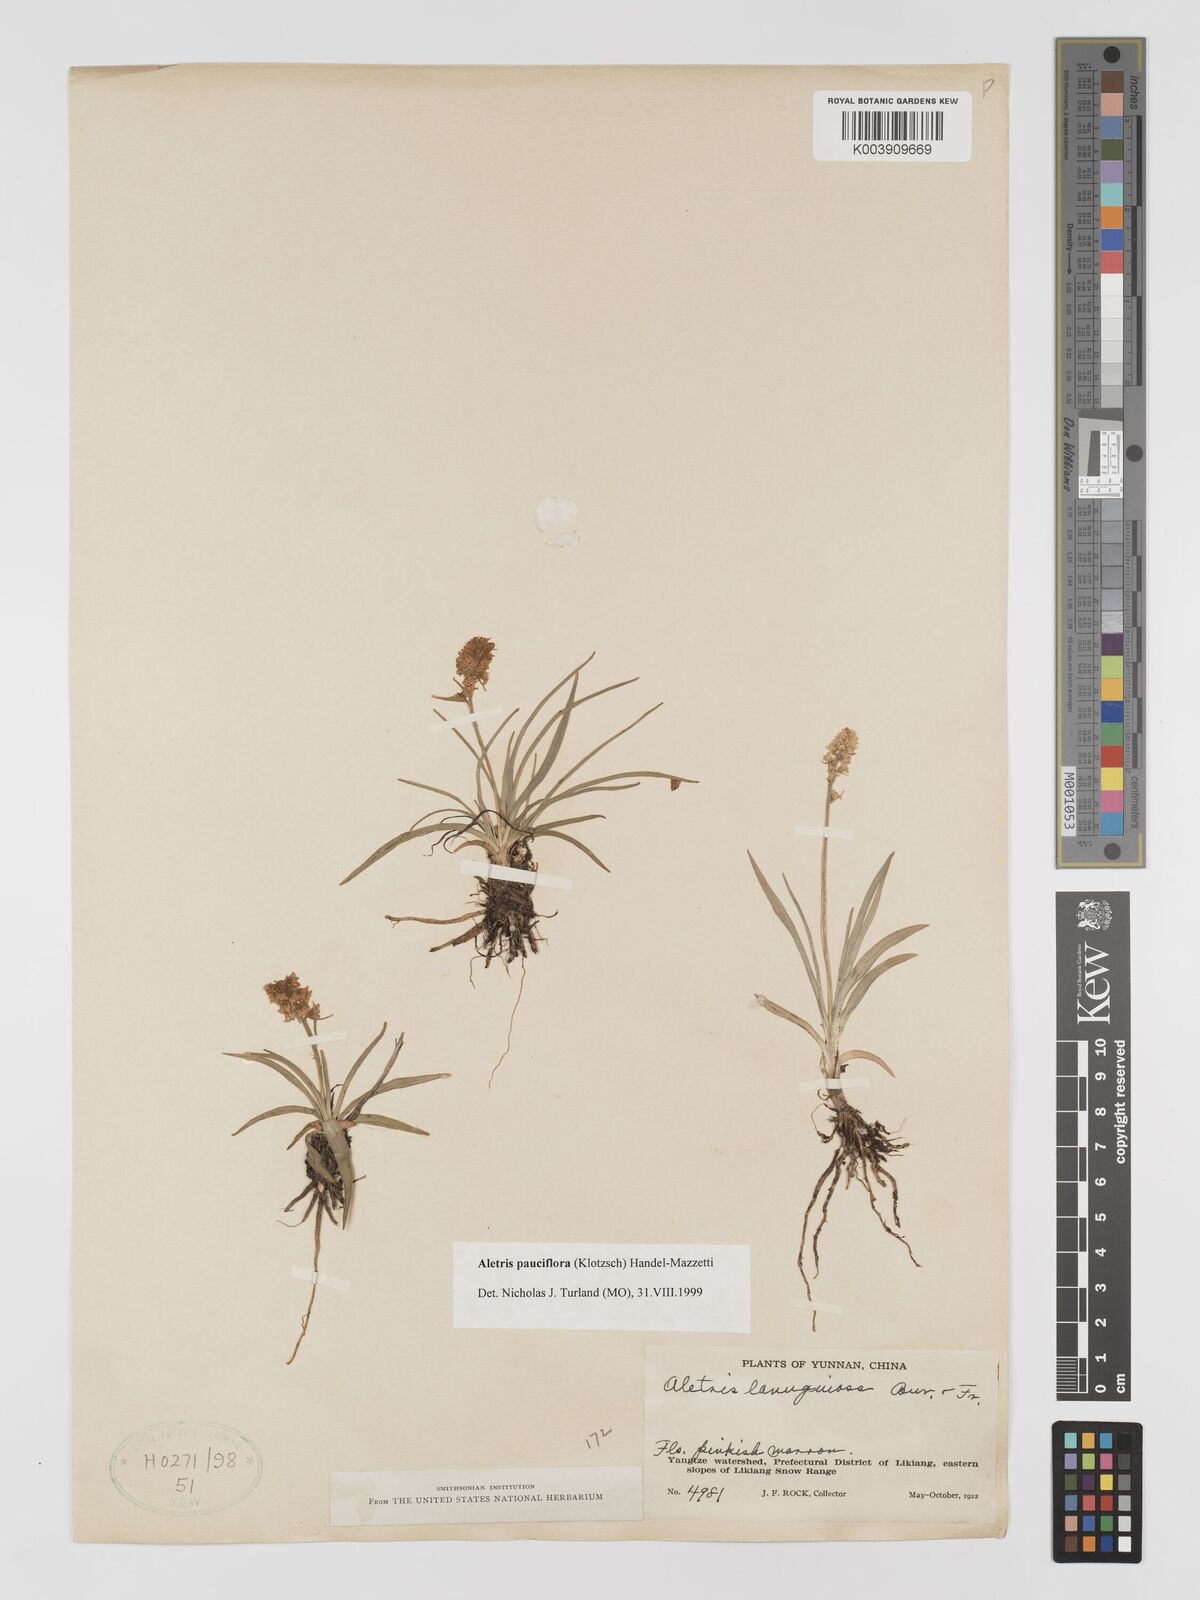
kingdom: Plantae
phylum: Tracheophyta
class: Liliopsida
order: Dioscoreales
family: Nartheciaceae
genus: Aletris
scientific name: Aletris pauciflora
